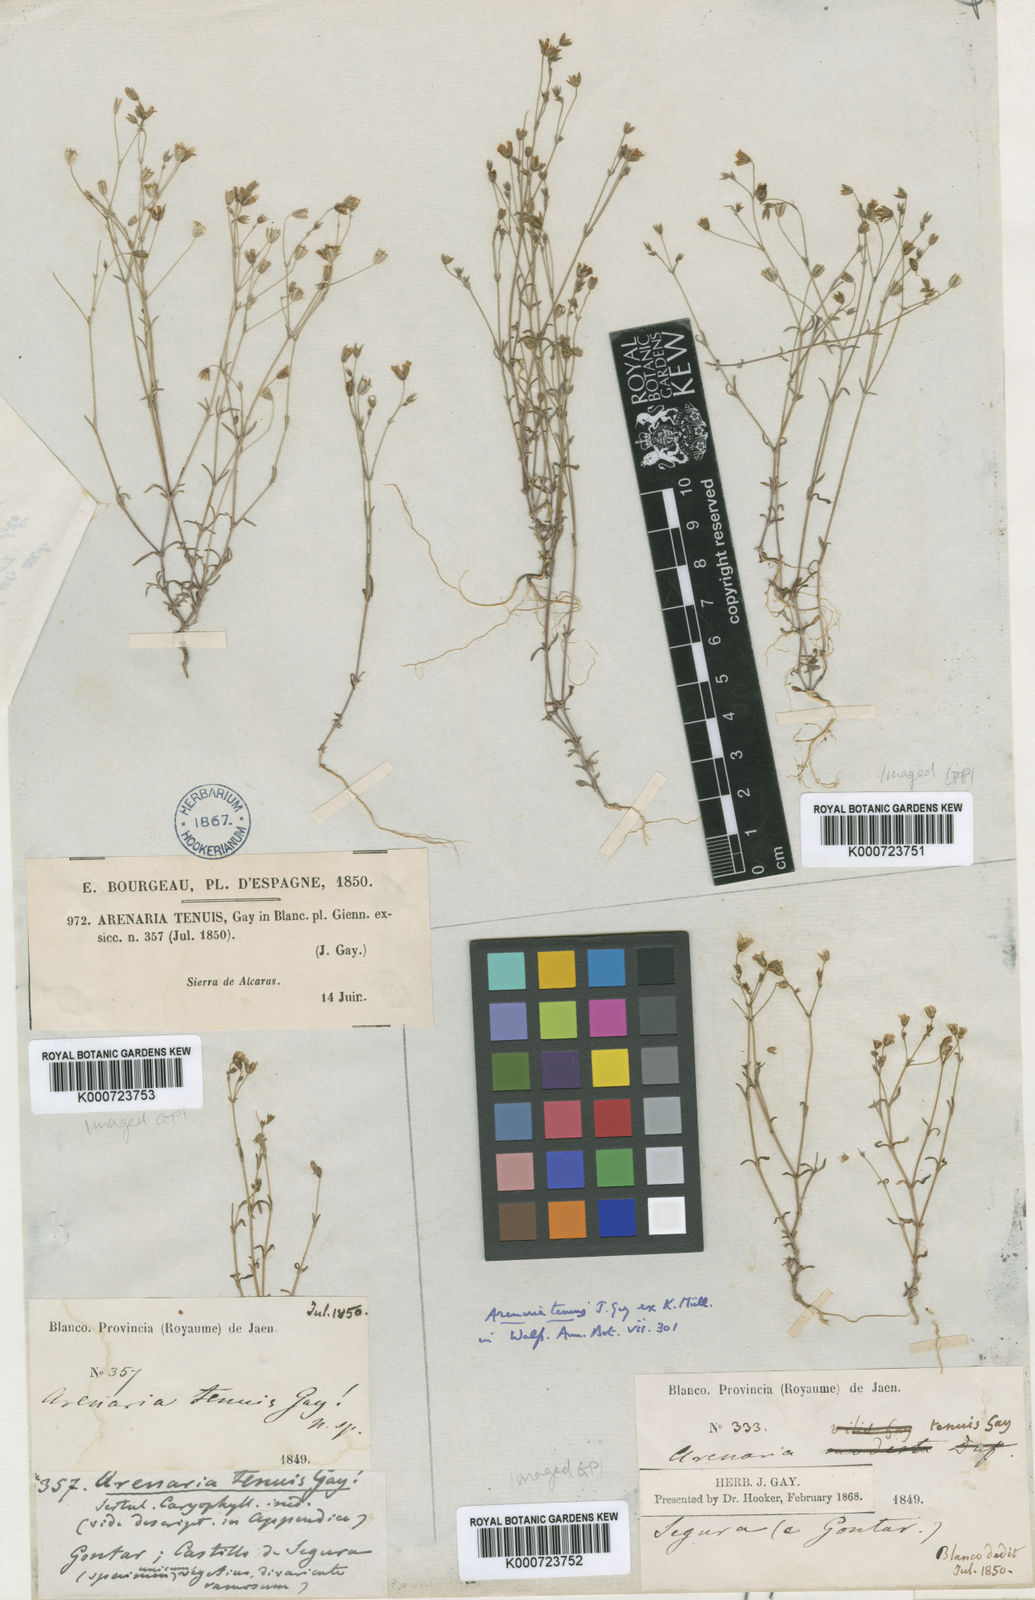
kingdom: Plantae
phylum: Tracheophyta
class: Magnoliopsida
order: Caryophyllales
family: Caryophyllaceae
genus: Arenaria
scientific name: Arenaria modesta
